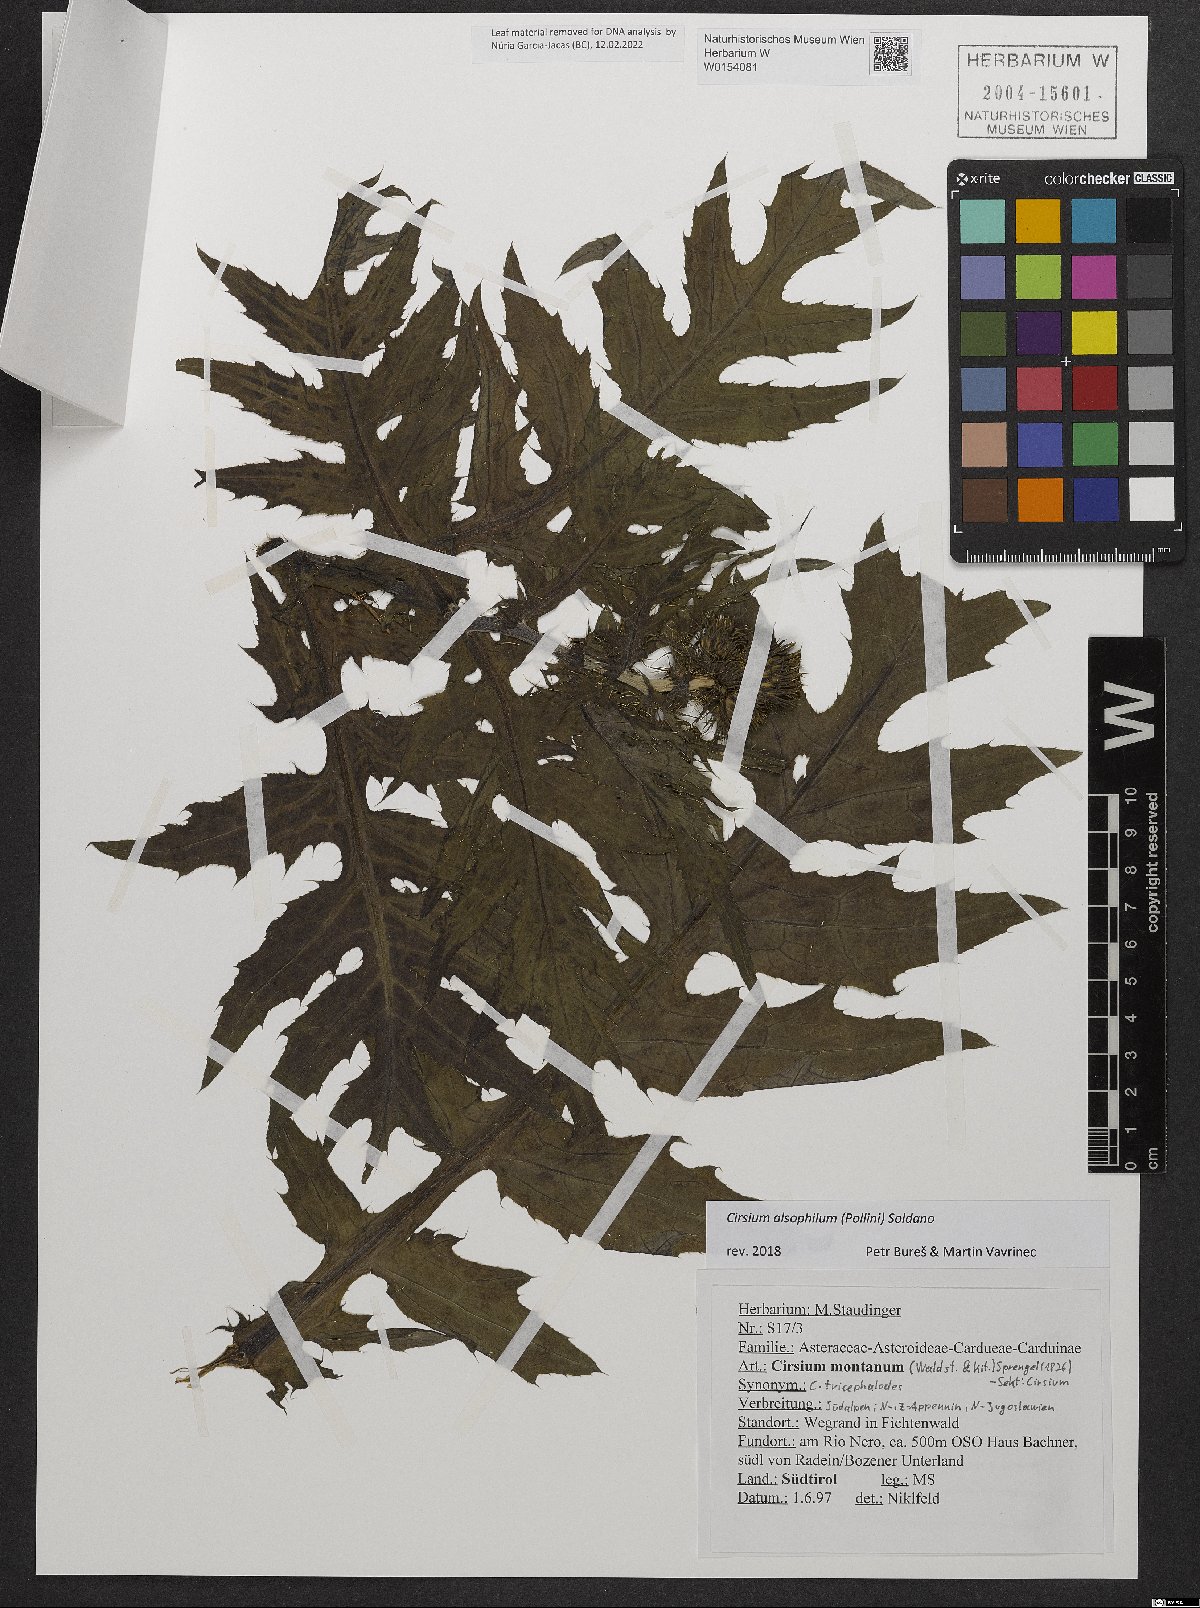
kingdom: Plantae
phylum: Tracheophyta
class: Magnoliopsida
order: Asterales
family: Asteraceae
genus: Cirsium
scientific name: Cirsium alsophilum
